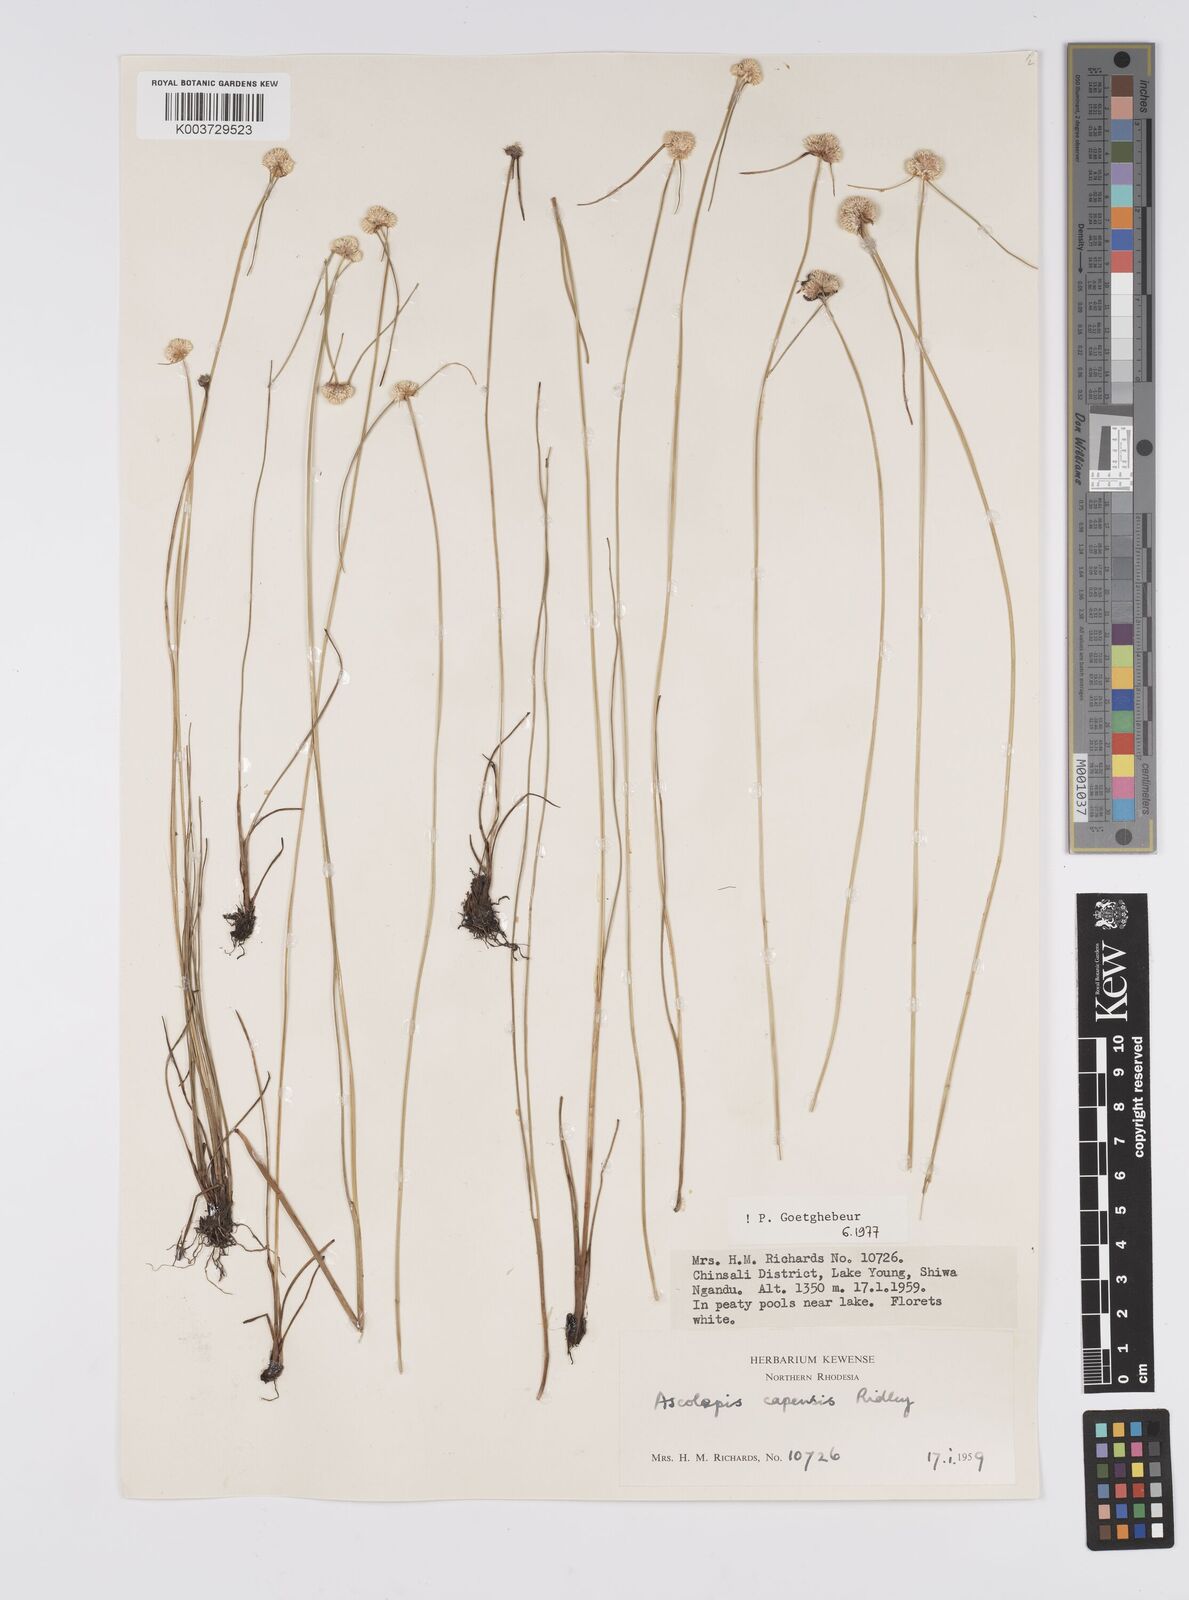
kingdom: Plantae
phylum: Tracheophyta
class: Liliopsida
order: Poales
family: Cyperaceae
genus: Cyperus
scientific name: Cyperus
